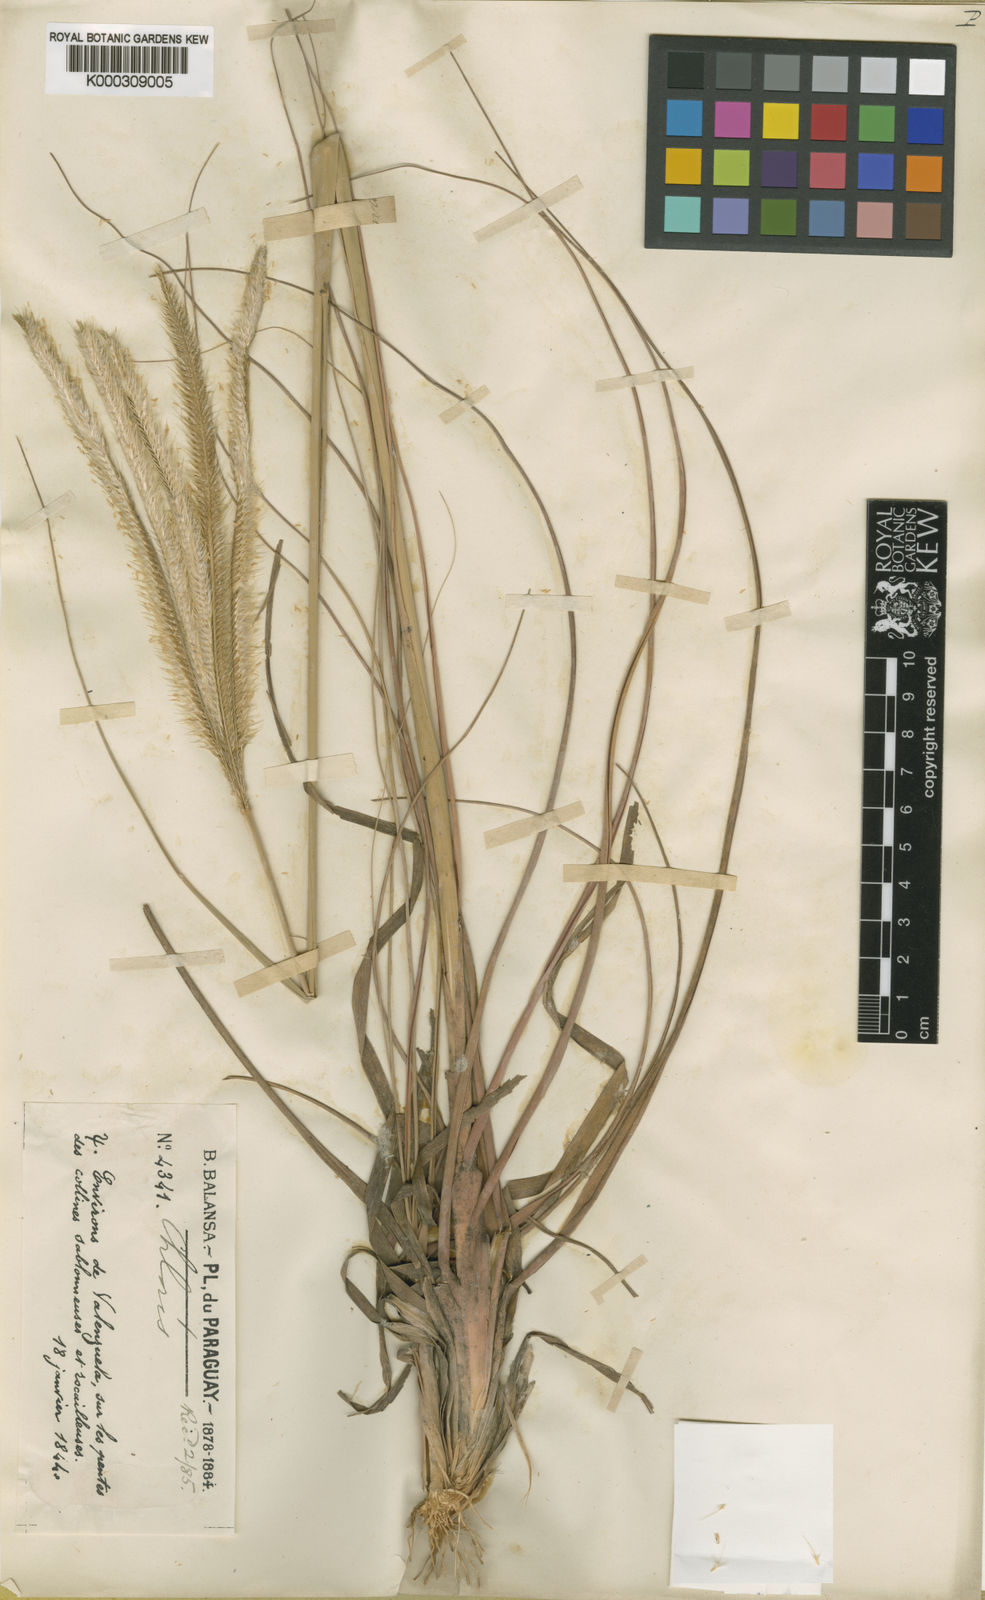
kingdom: Plantae
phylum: Tracheophyta
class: Liliopsida
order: Poales
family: Poaceae
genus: Ctenium
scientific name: Ctenium polystachyum
